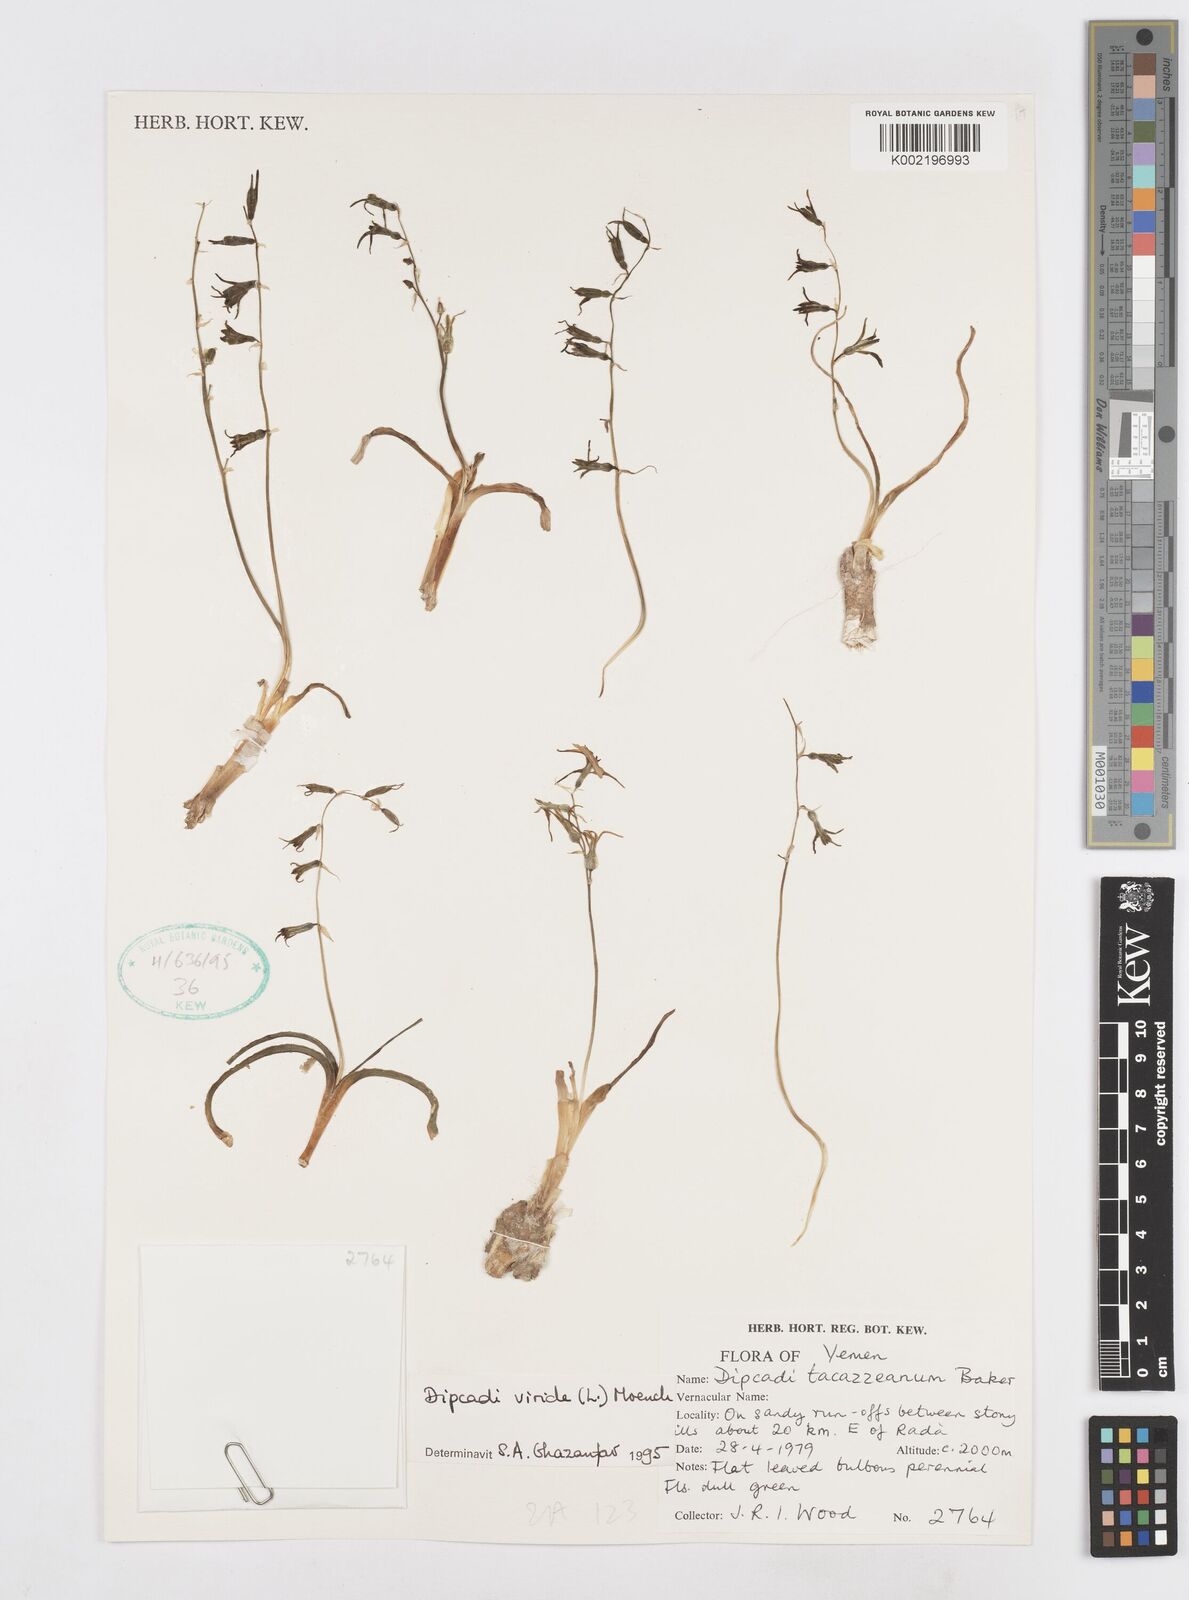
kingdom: Plantae
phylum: Tracheophyta
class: Liliopsida
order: Asparagales
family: Asparagaceae
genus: Dipcadi
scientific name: Dipcadi viride
